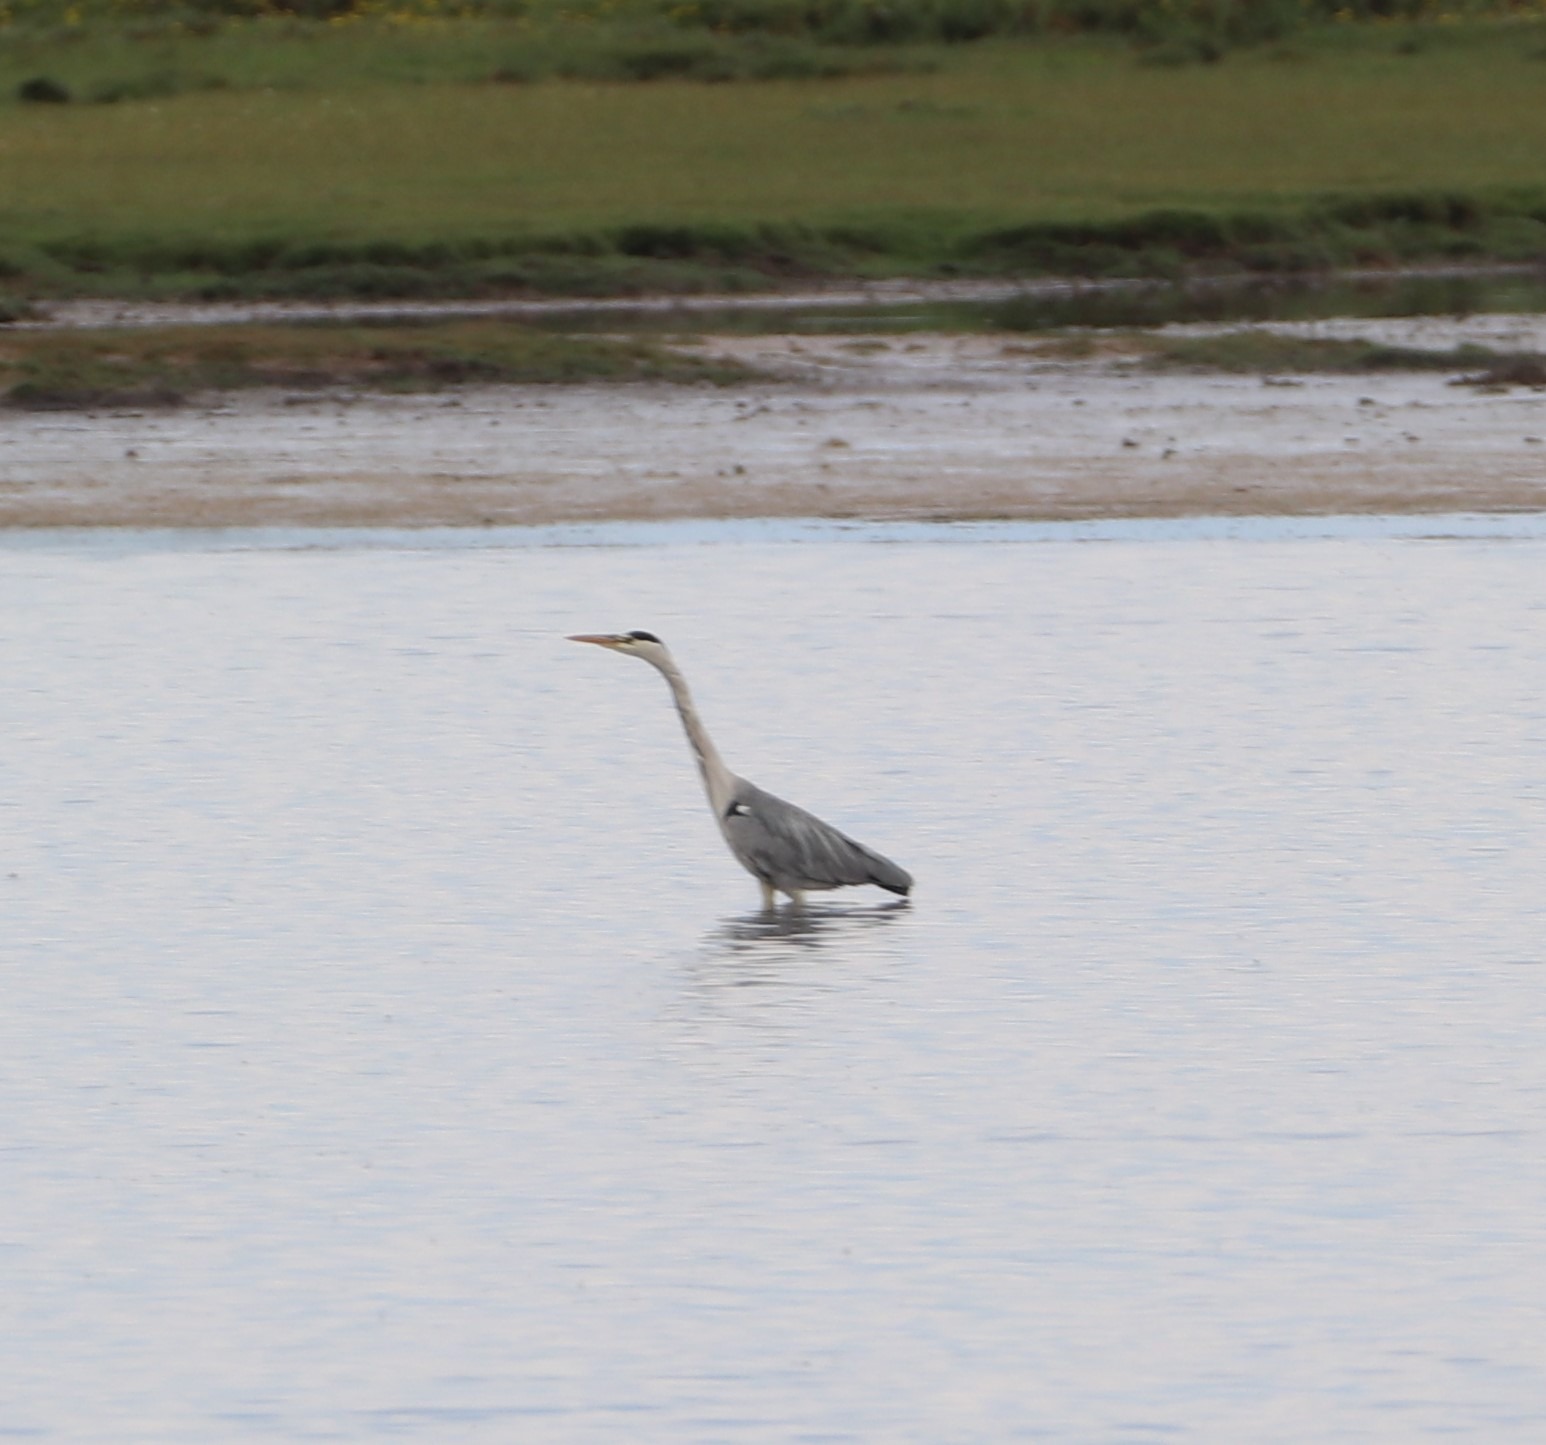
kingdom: Animalia
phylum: Chordata
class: Aves
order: Pelecaniformes
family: Ardeidae
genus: Ardea
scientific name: Ardea cinerea
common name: Fiskehejre
